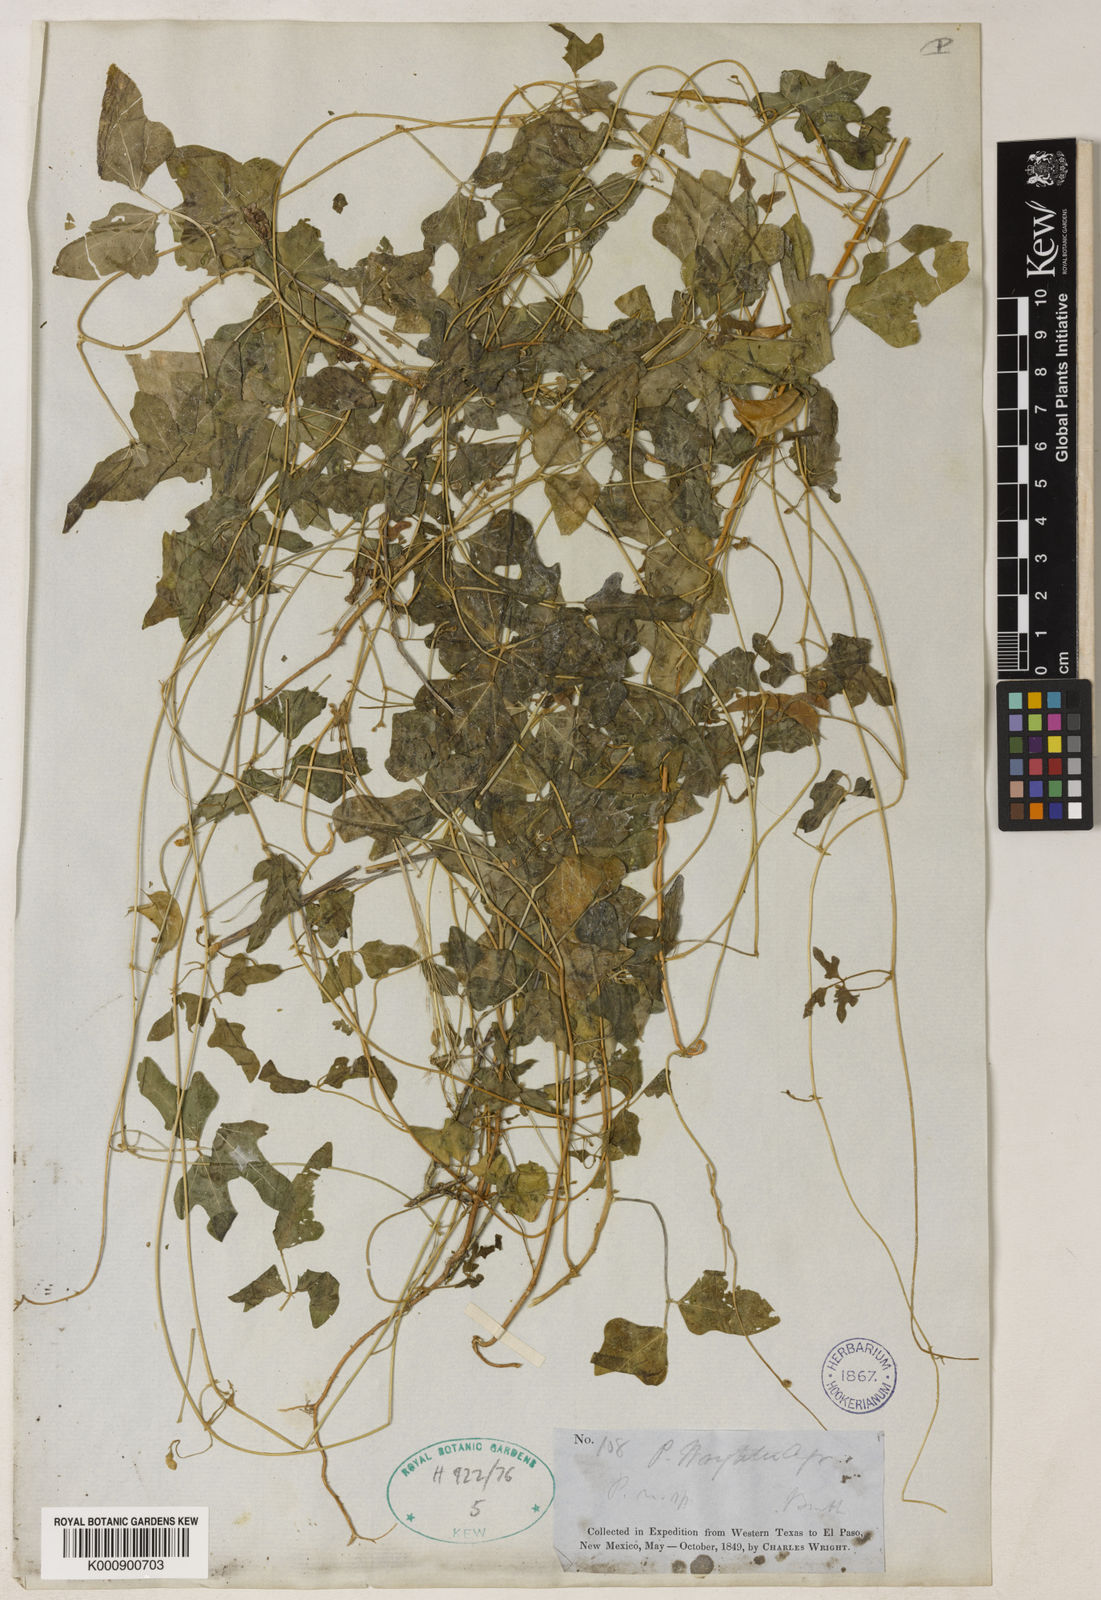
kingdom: Plantae
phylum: Tracheophyta
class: Magnoliopsida
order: Fabales
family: Fabaceae
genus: Phaseolus
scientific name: Phaseolus filiformis
